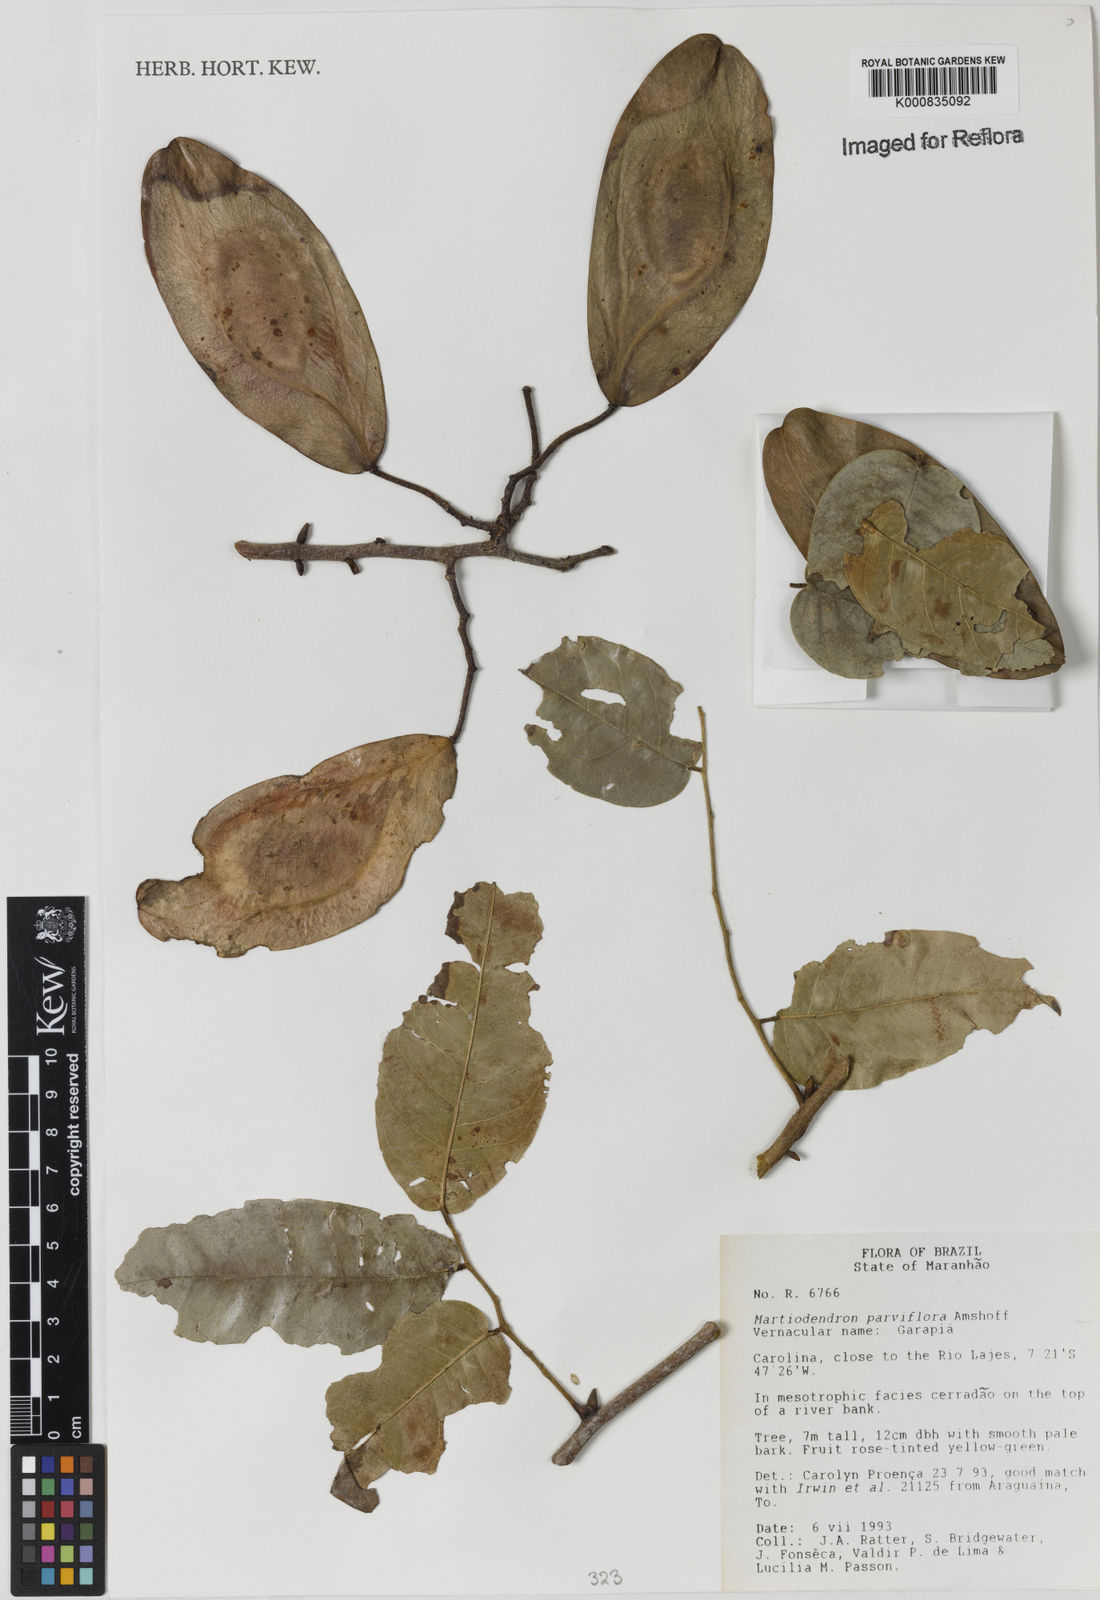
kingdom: Plantae
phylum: Tracheophyta
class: Magnoliopsida
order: Fabales
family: Fabaceae
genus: Martiodendron
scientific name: Martiodendron
